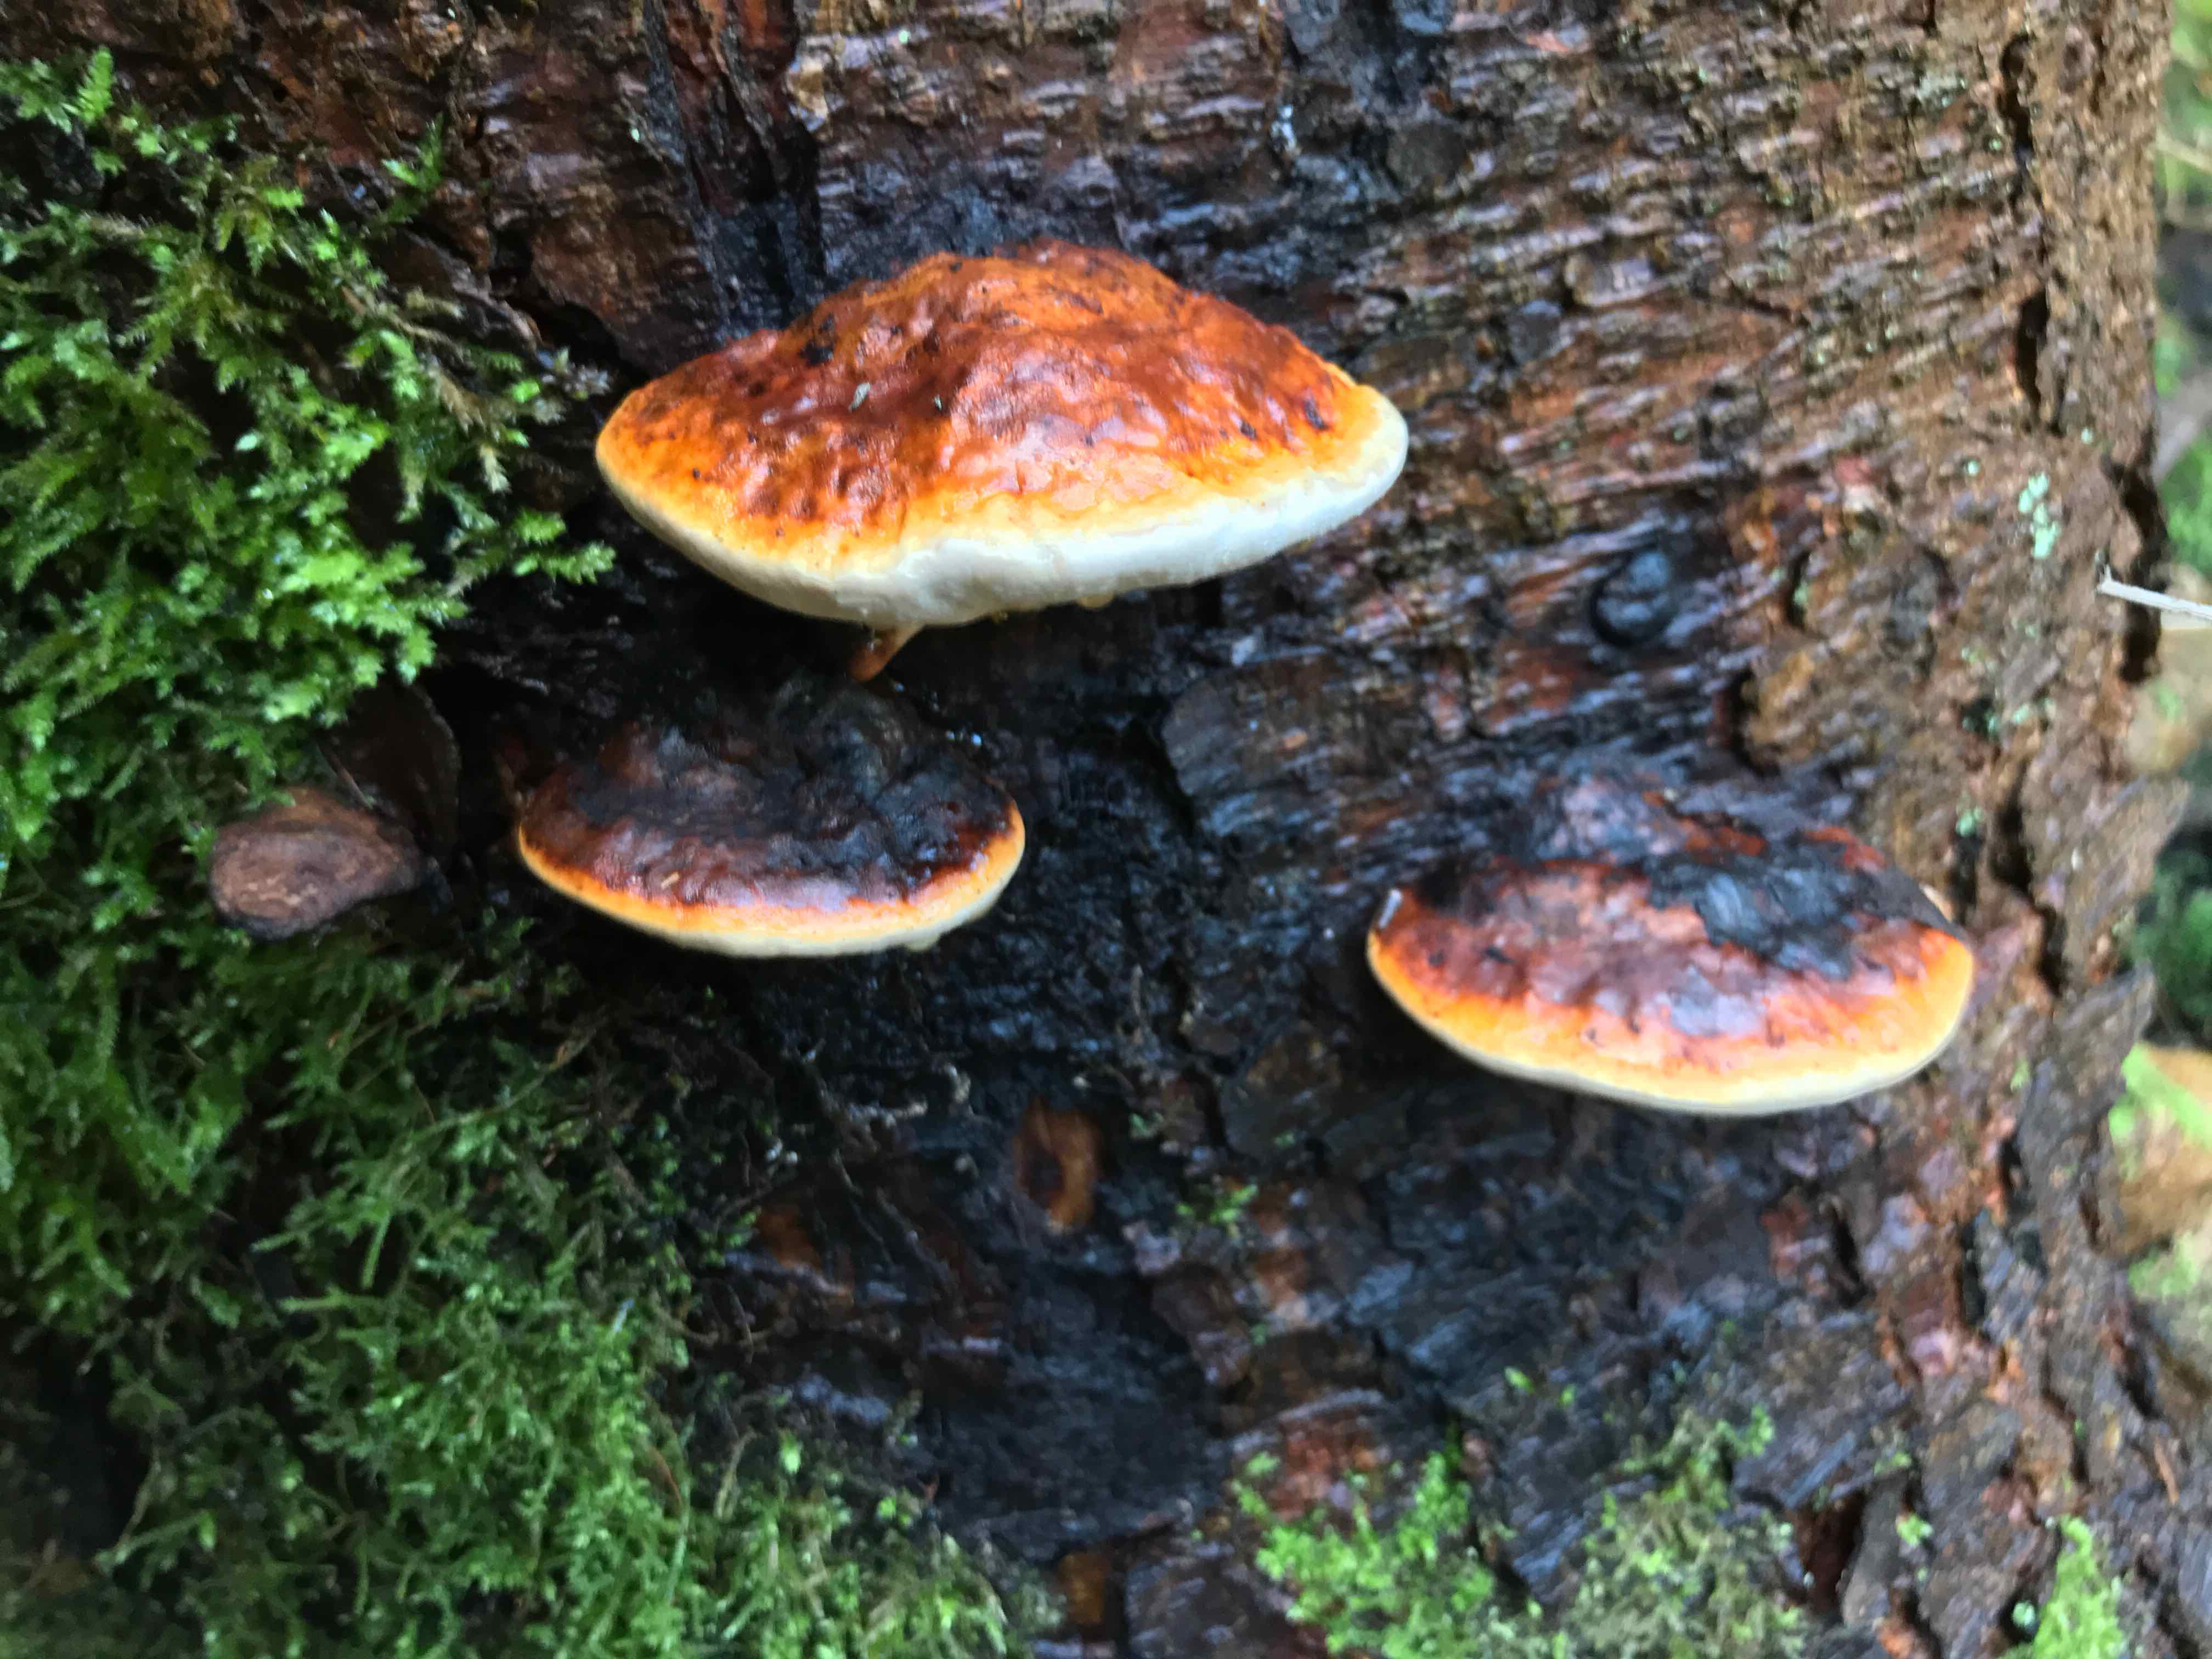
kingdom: Fungi
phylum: Basidiomycota
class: Agaricomycetes
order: Polyporales
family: Fomitopsidaceae
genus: Fomitopsis
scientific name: Fomitopsis pinicola
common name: randbæltet hovporesvamp
